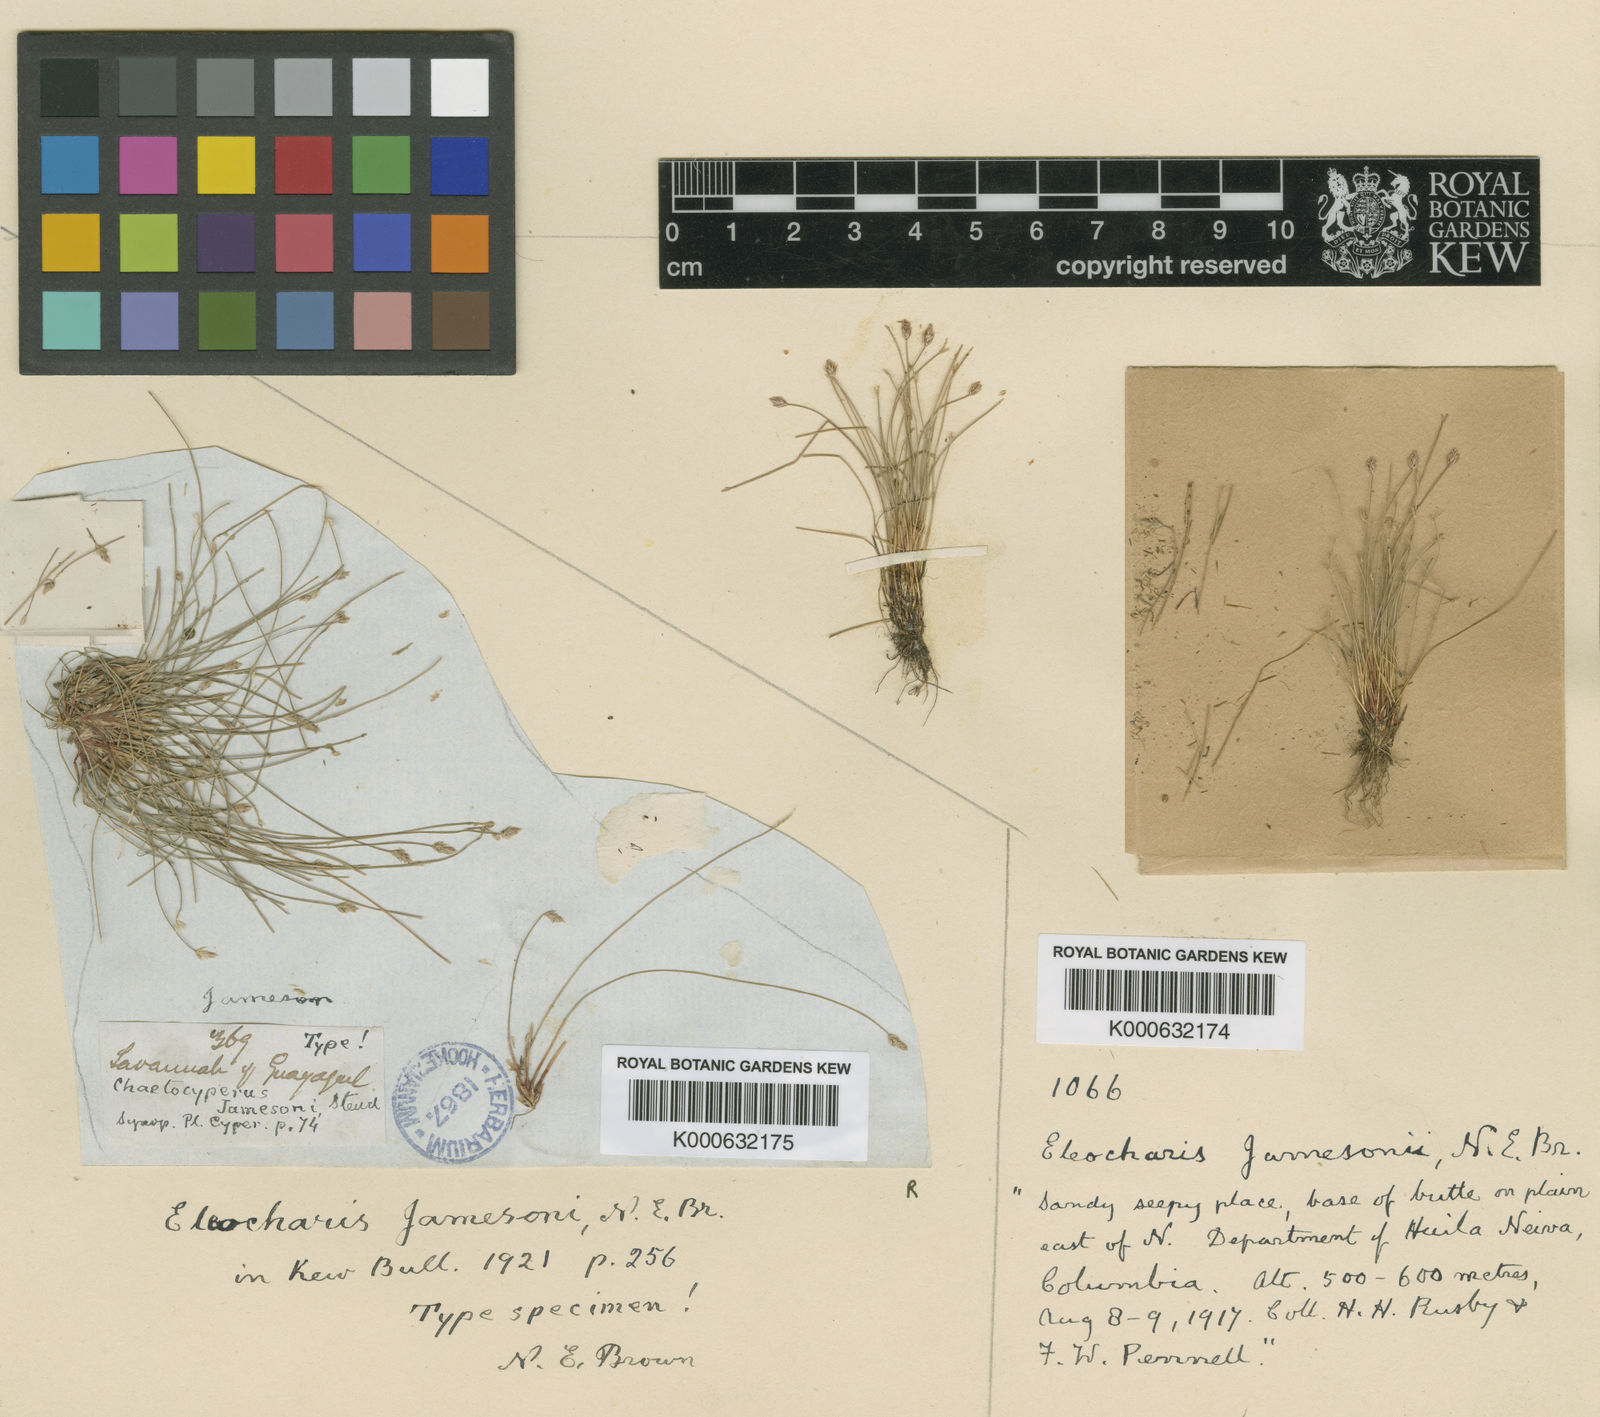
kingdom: Plantae
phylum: Tracheophyta
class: Liliopsida
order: Poales
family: Cyperaceae
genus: Eleocharis
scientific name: Eleocharis minima
